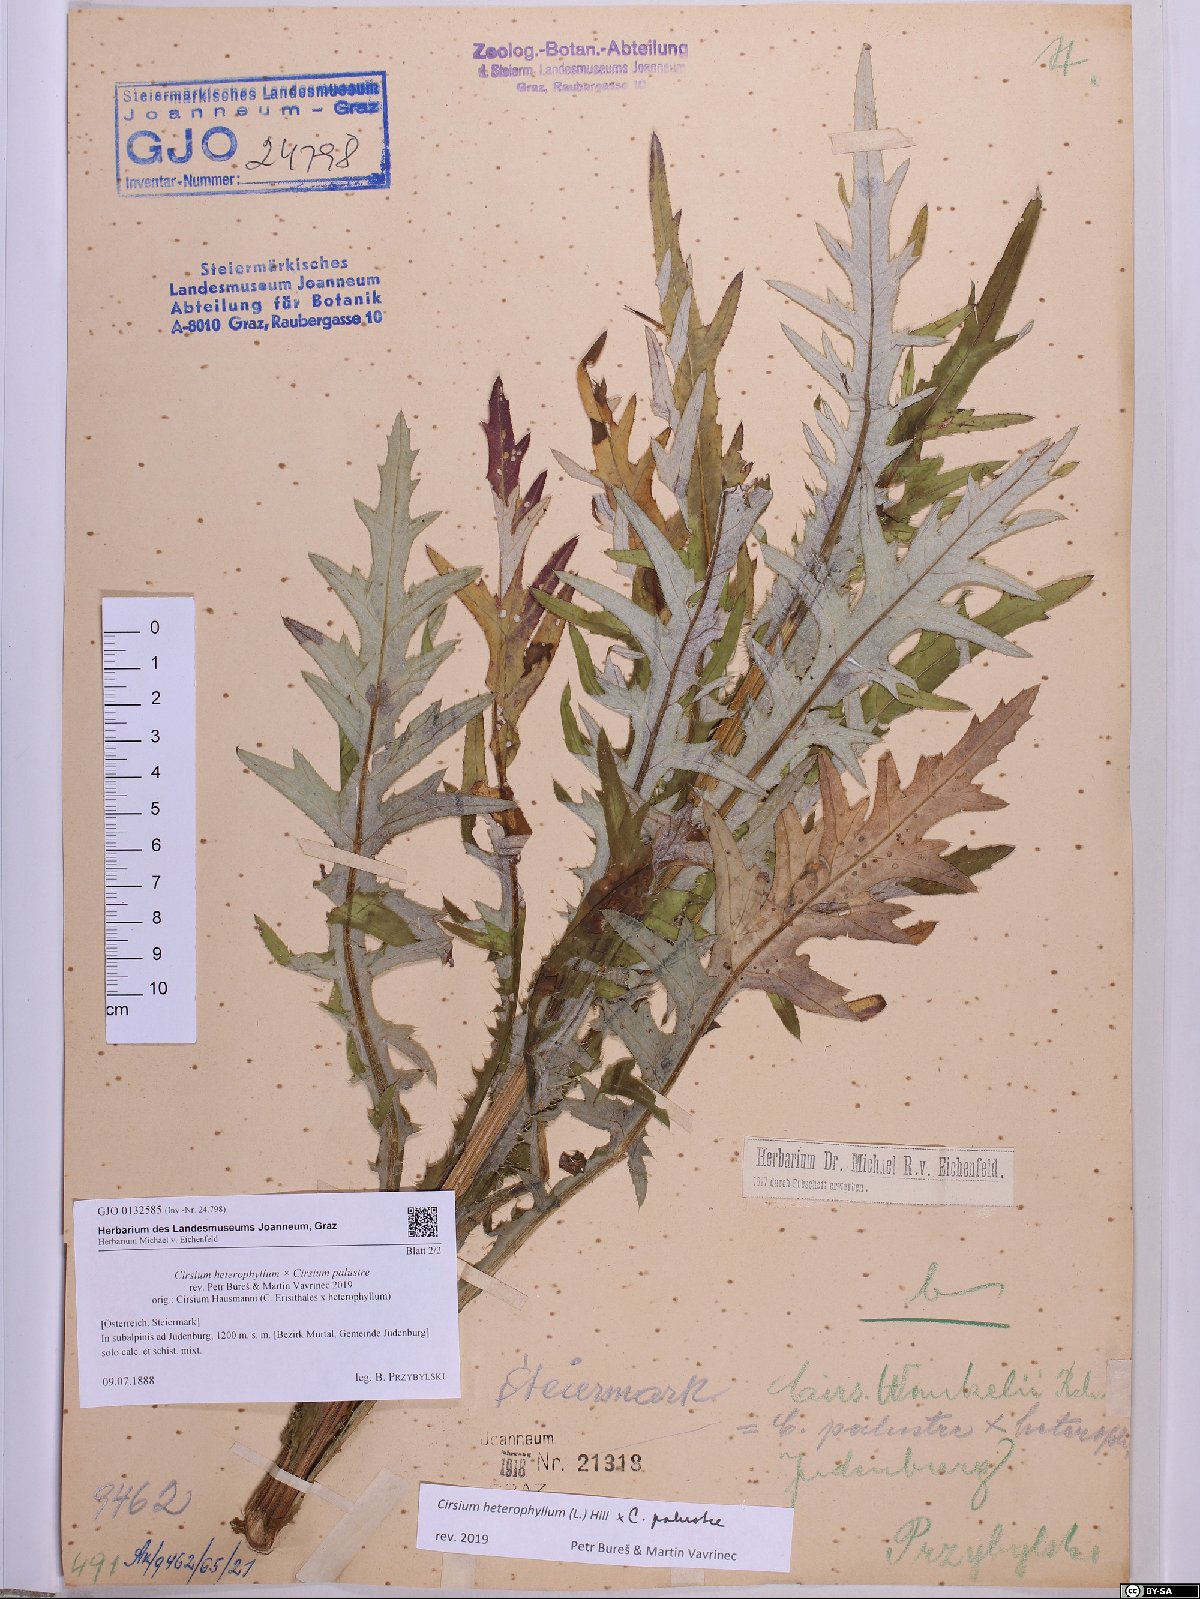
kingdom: Plantae
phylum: Tracheophyta
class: Magnoliopsida
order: Asterales
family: Asteraceae
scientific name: Asteraceae
